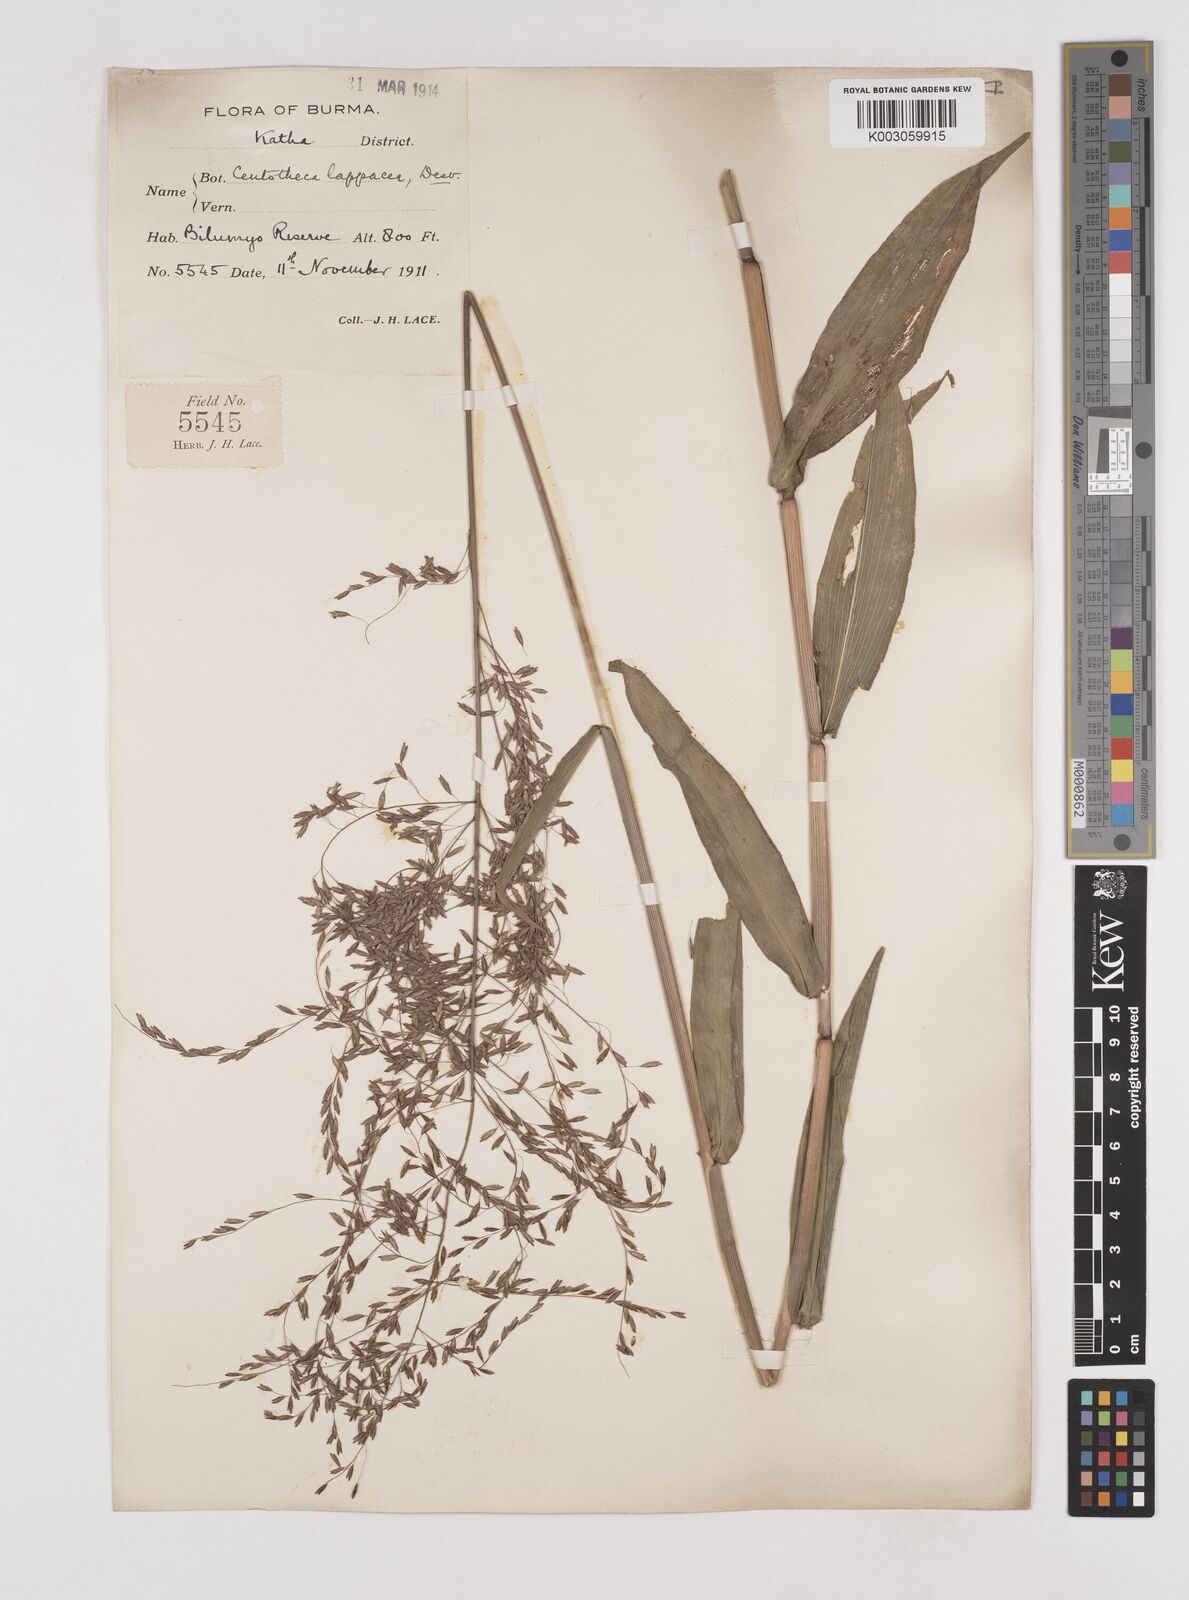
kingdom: Plantae
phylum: Tracheophyta
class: Liliopsida
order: Poales
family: Poaceae
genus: Centotheca
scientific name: Centotheca lappacea
